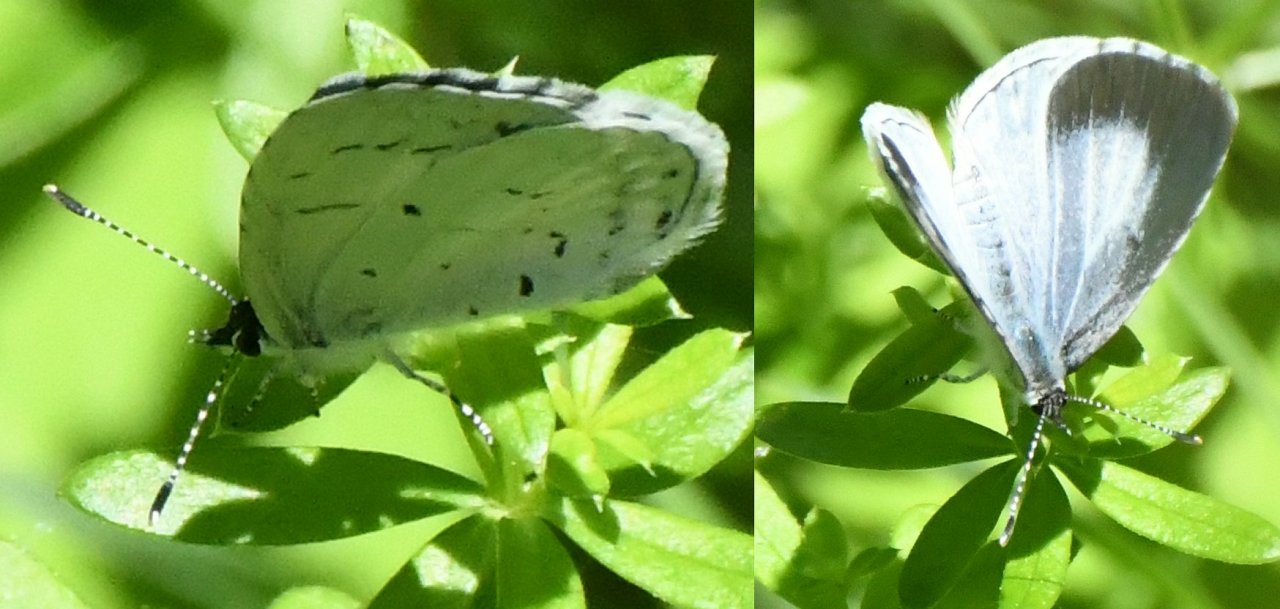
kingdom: Animalia
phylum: Arthropoda
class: Insecta
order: Lepidoptera
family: Lycaenidae
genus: Celastrina
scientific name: Celastrina
